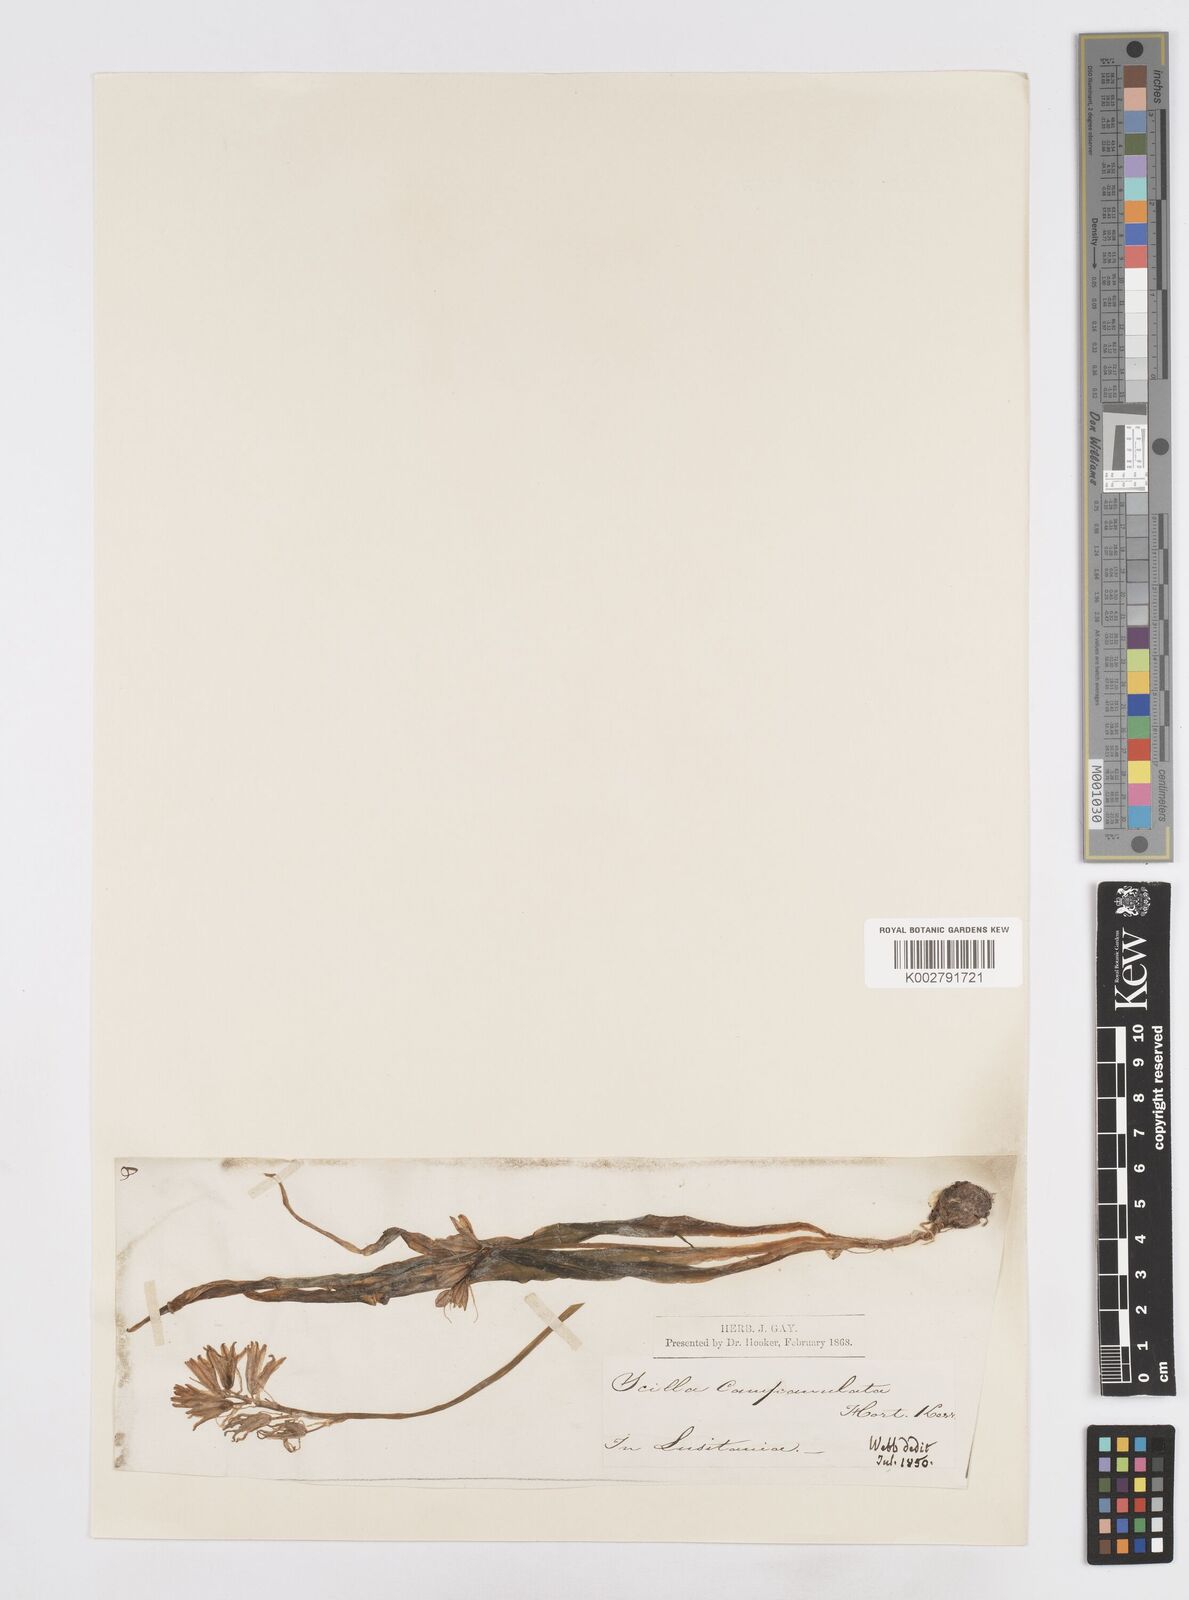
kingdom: Plantae
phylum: Tracheophyta
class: Liliopsida
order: Asparagales
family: Asparagaceae
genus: Hyacinthoides
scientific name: Hyacinthoides hispanica
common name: Spanish bluebell
